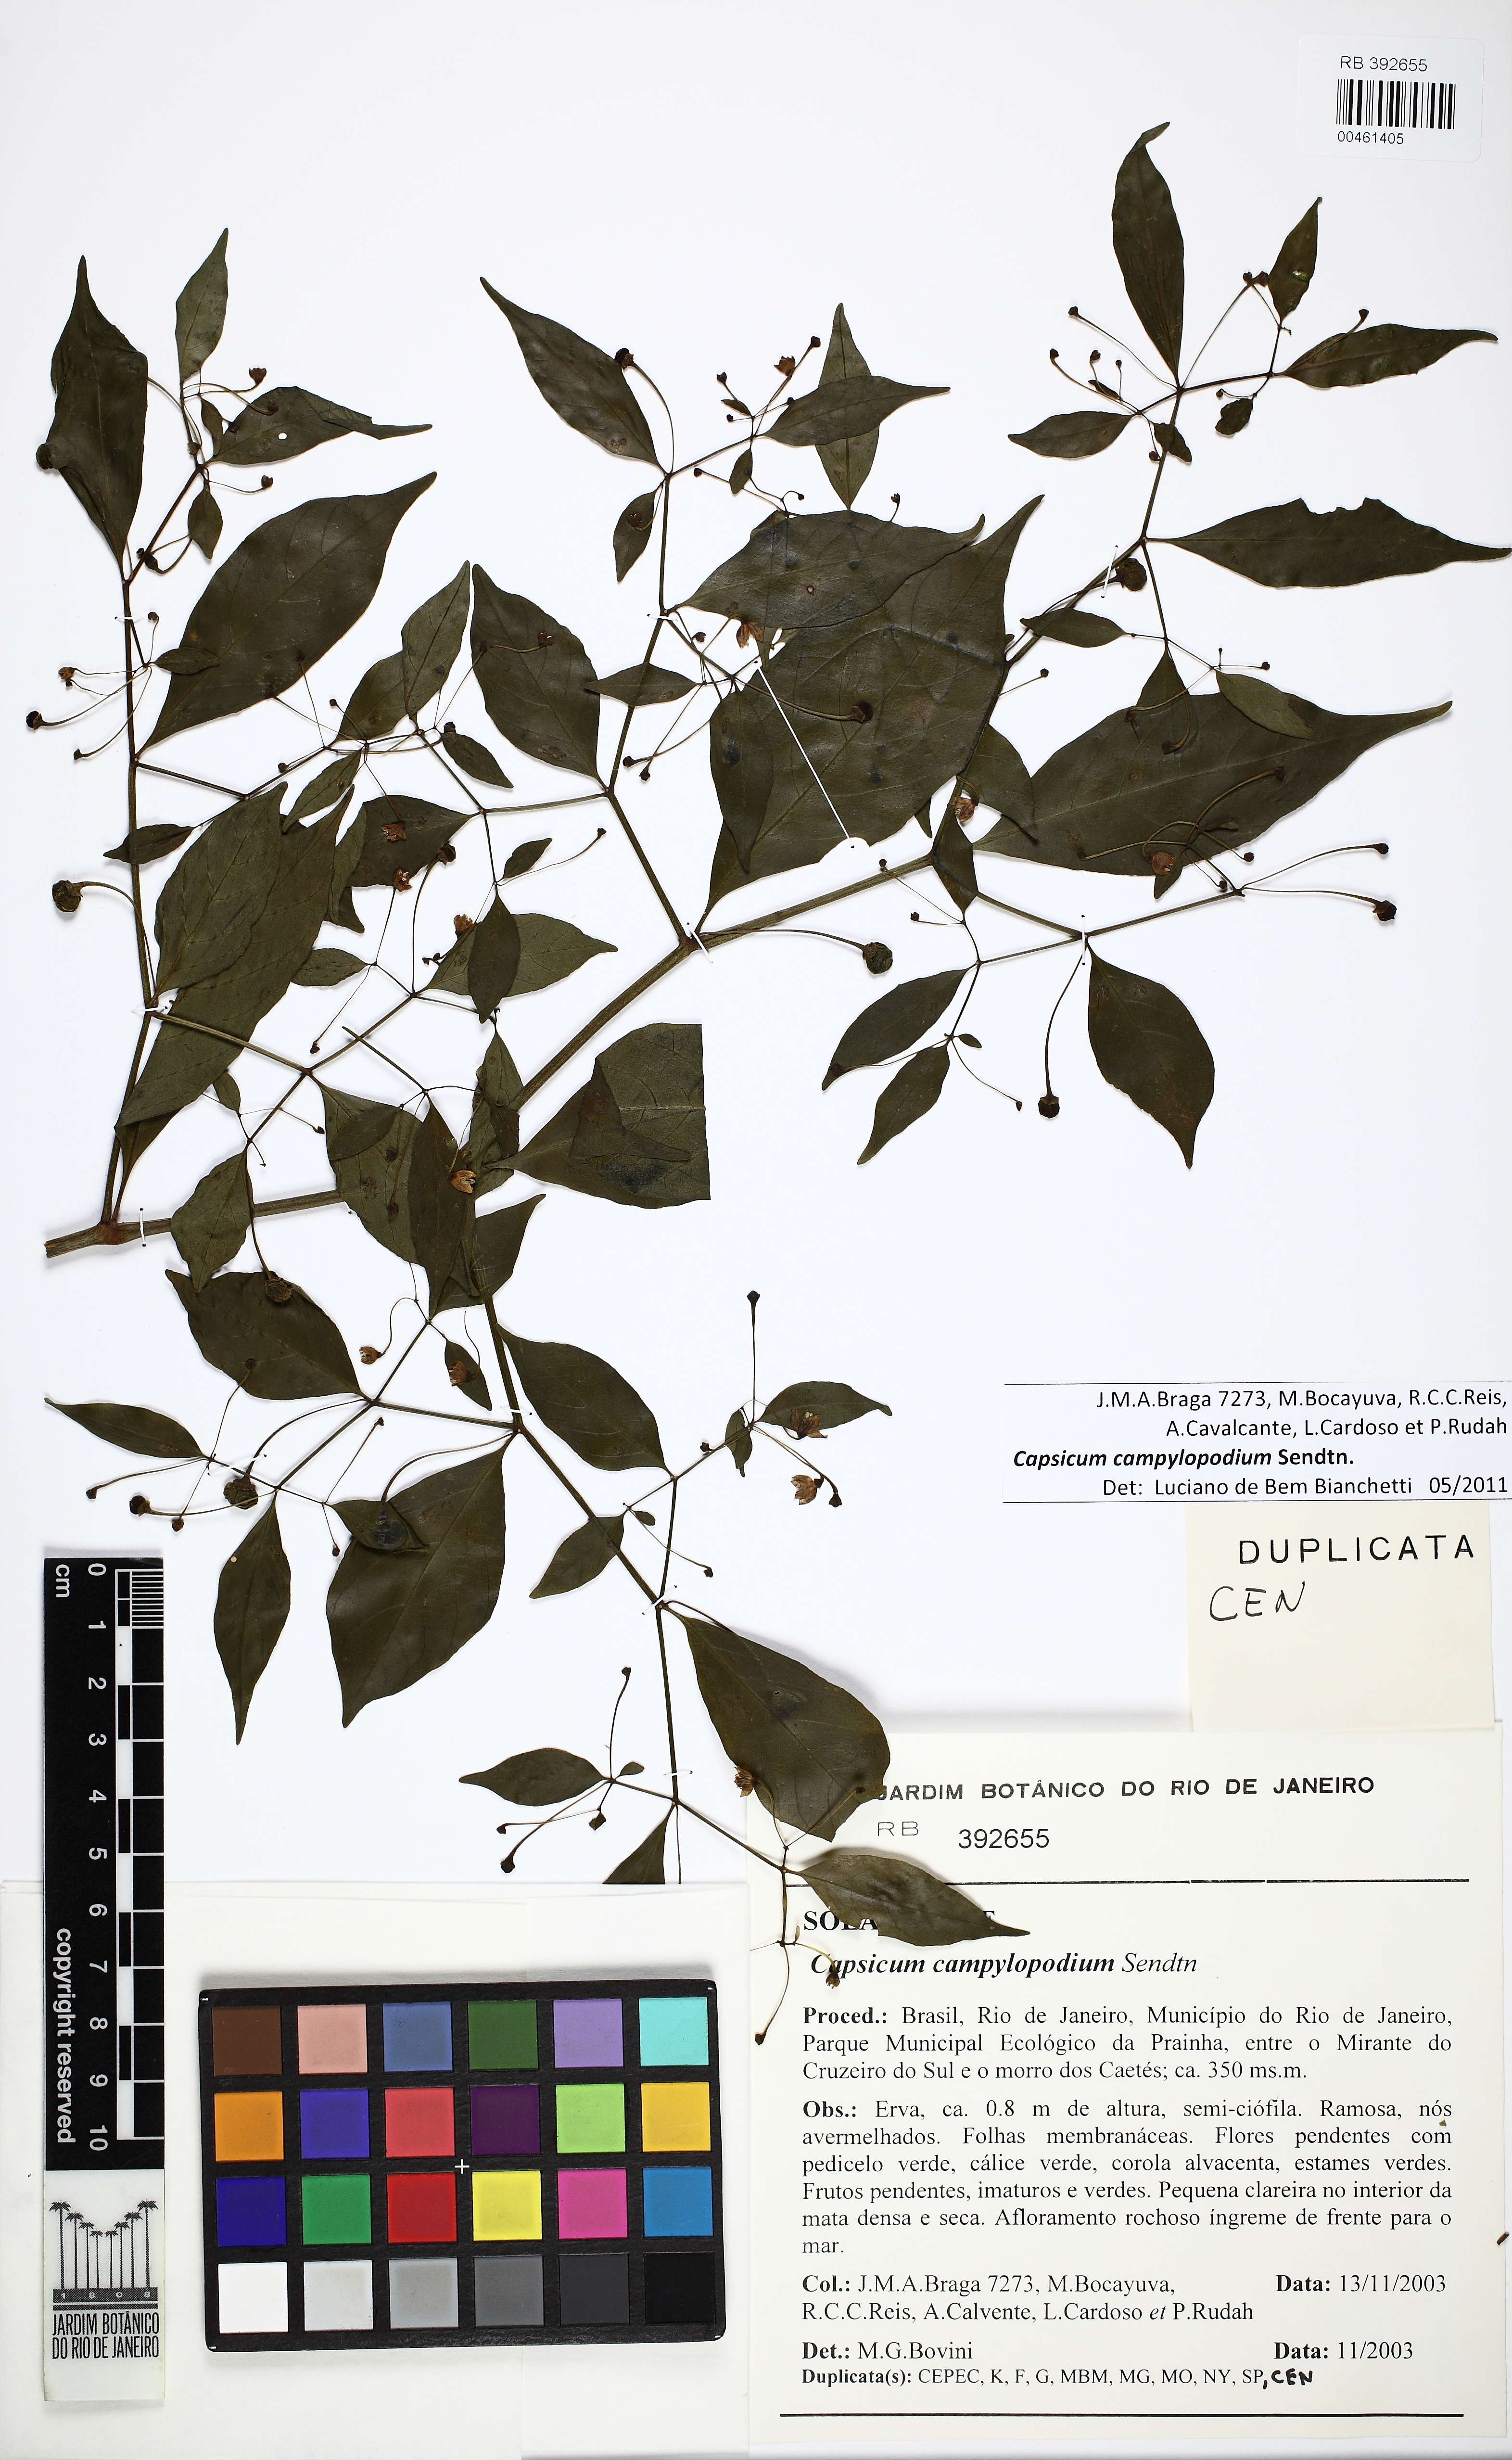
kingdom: Plantae
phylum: Tracheophyta
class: Magnoliopsida
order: Solanales
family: Solanaceae
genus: Capsicum
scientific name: Capsicum campylopodium
